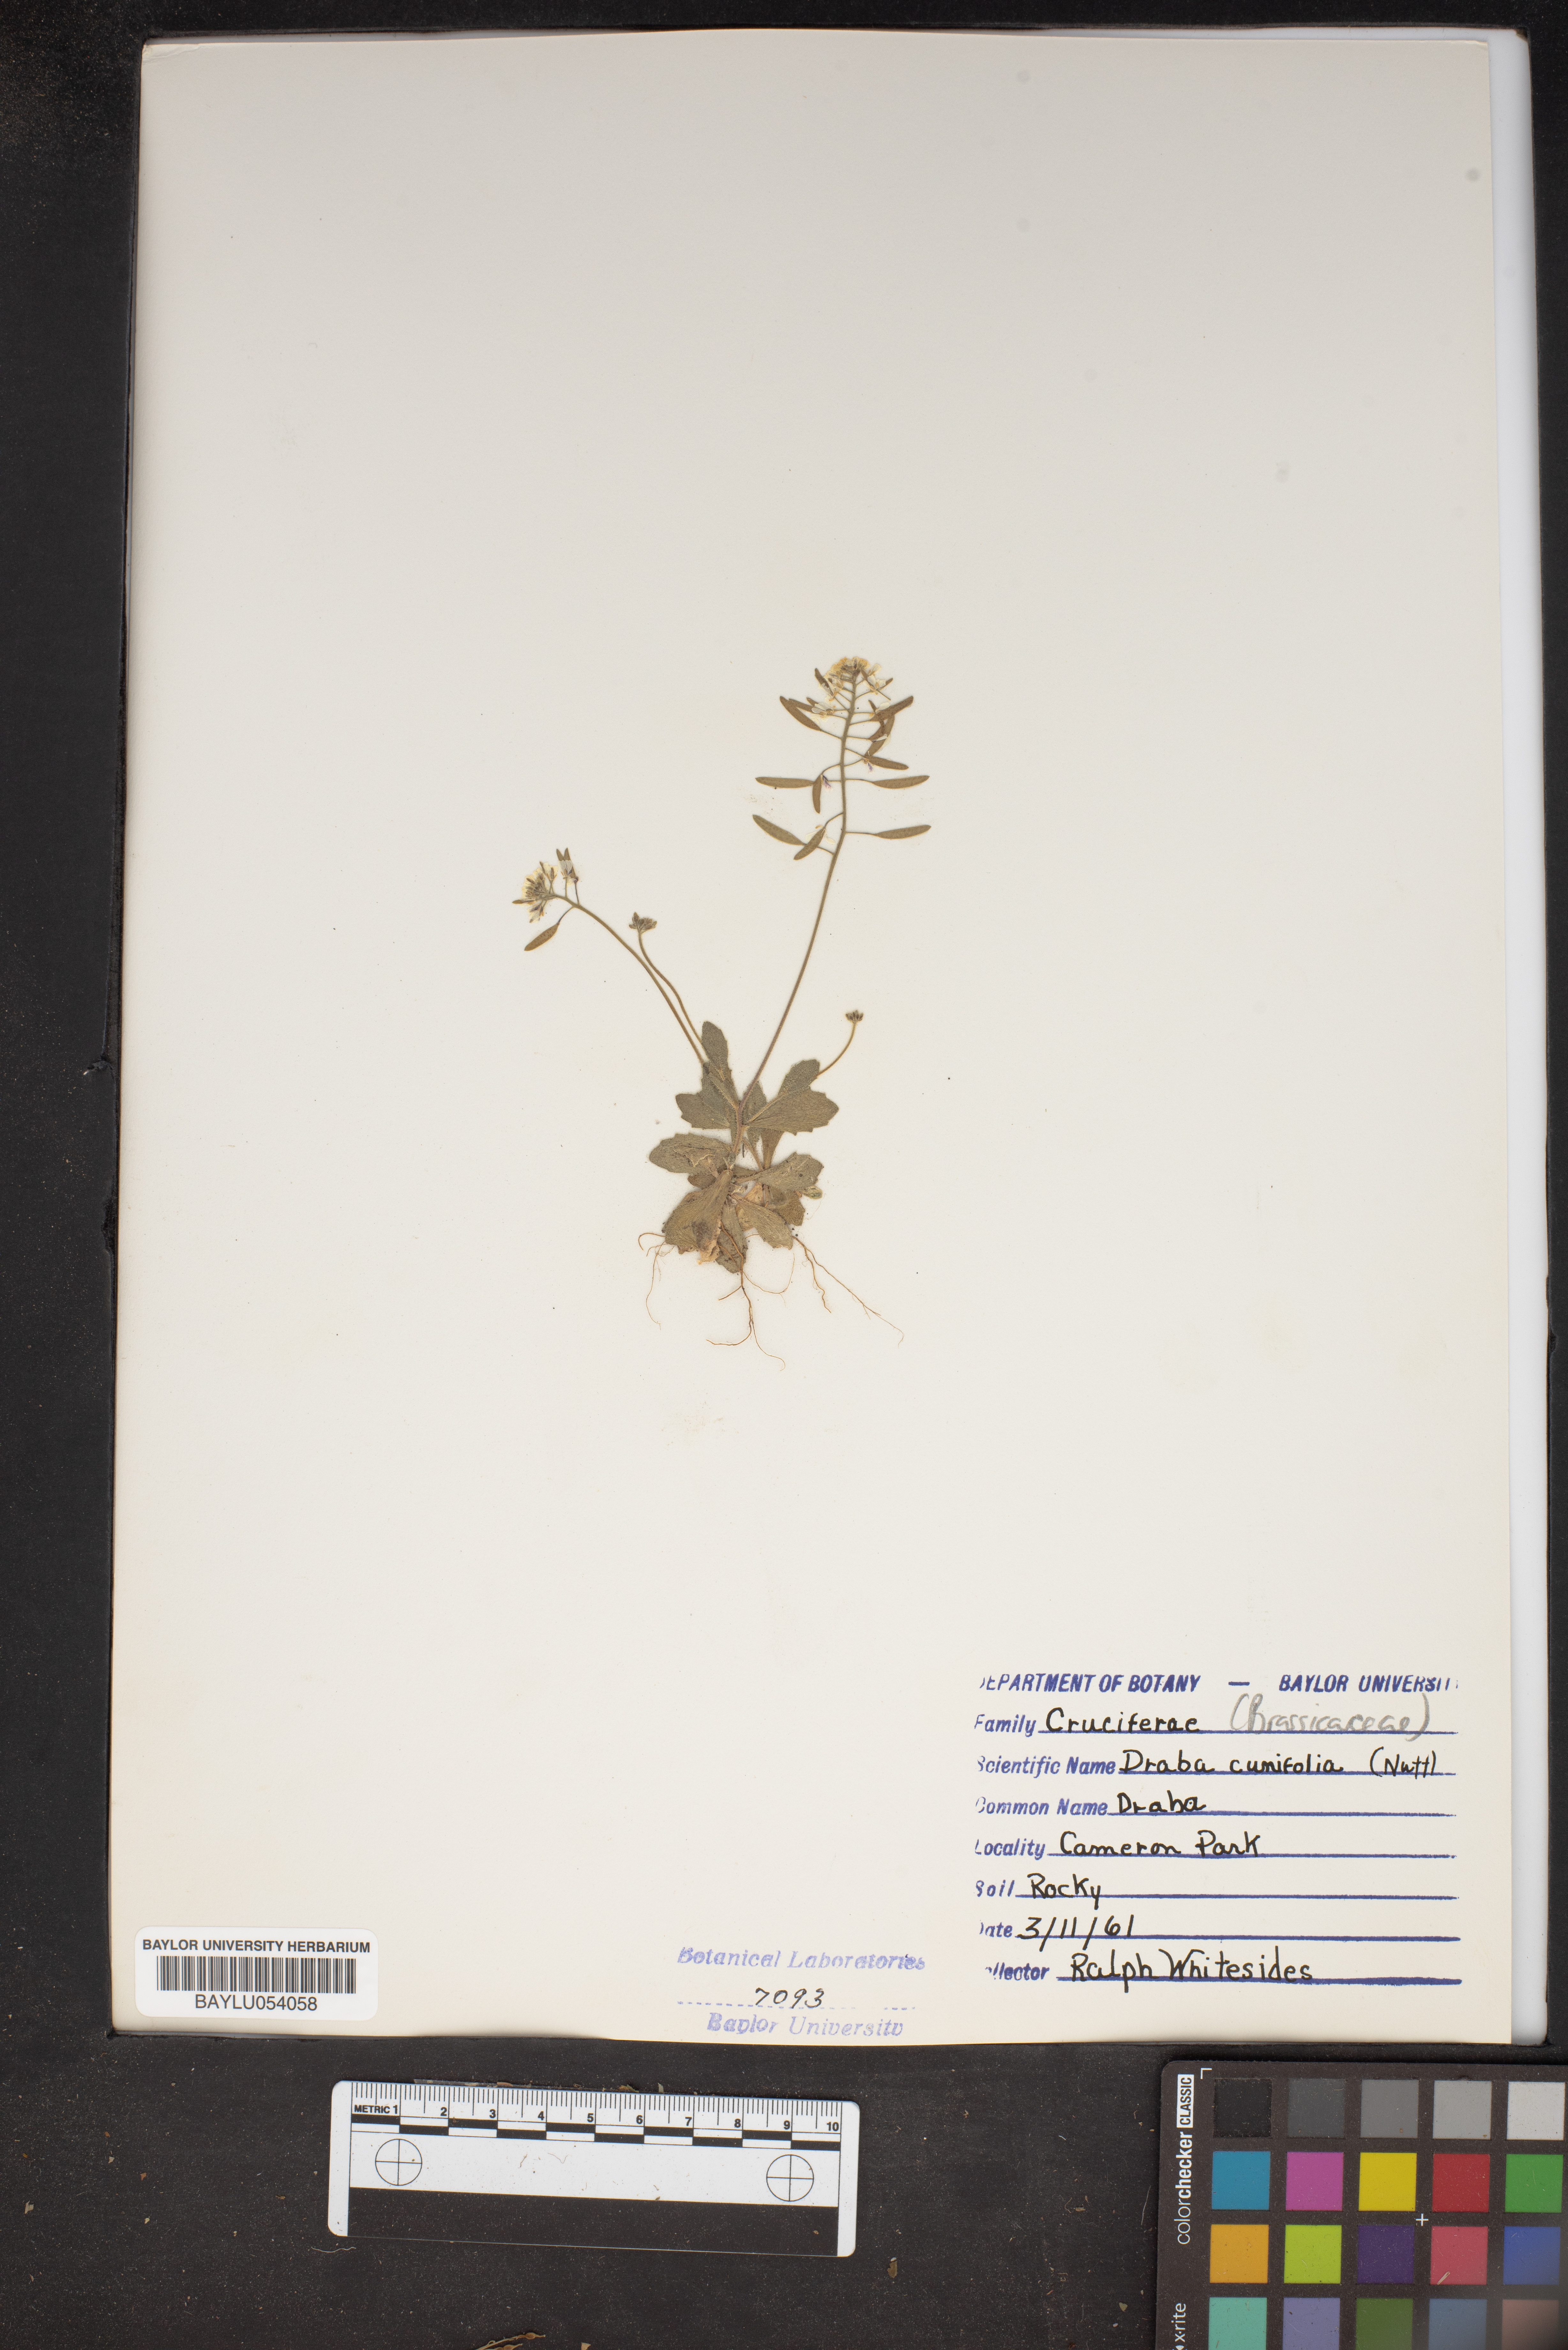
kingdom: Plantae
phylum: Tracheophyta
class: Magnoliopsida
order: Brassicales
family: Brassicaceae
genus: Tomostima
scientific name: Tomostima cuneifolia
